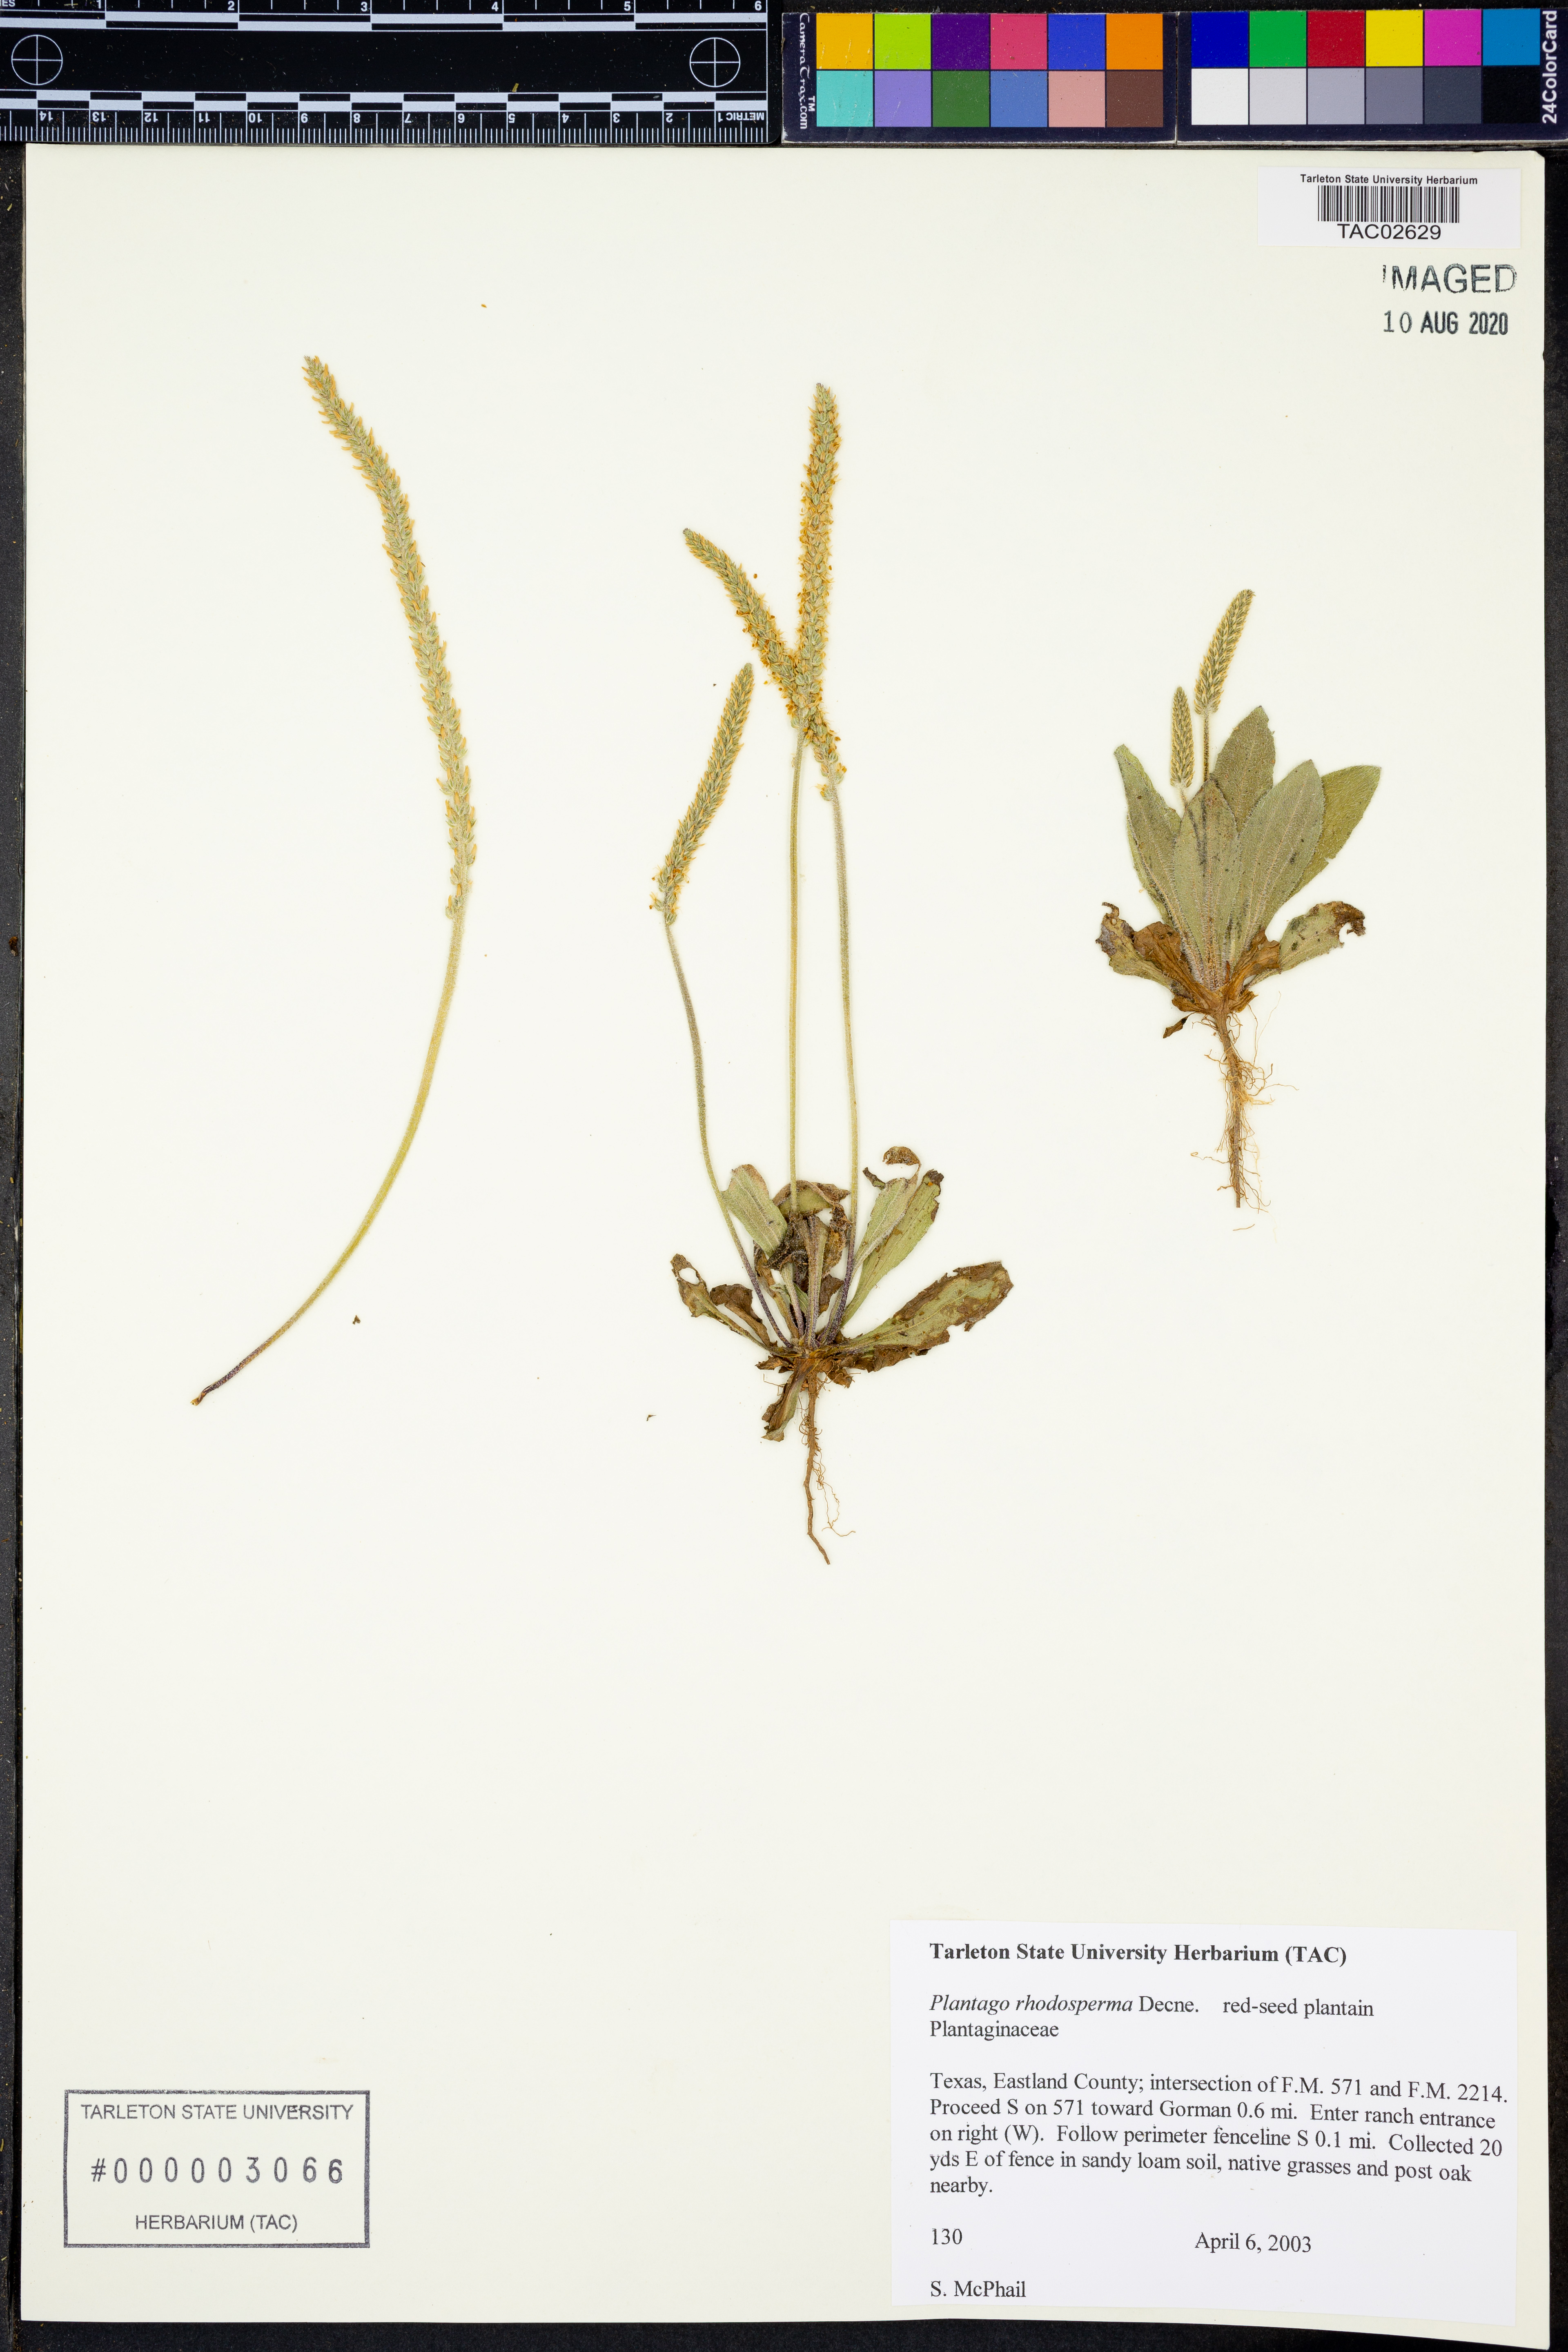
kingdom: Plantae
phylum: Tracheophyta
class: Magnoliopsida
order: Lamiales
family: Plantaginaceae
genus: Plantago
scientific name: Plantago rhodosperma
